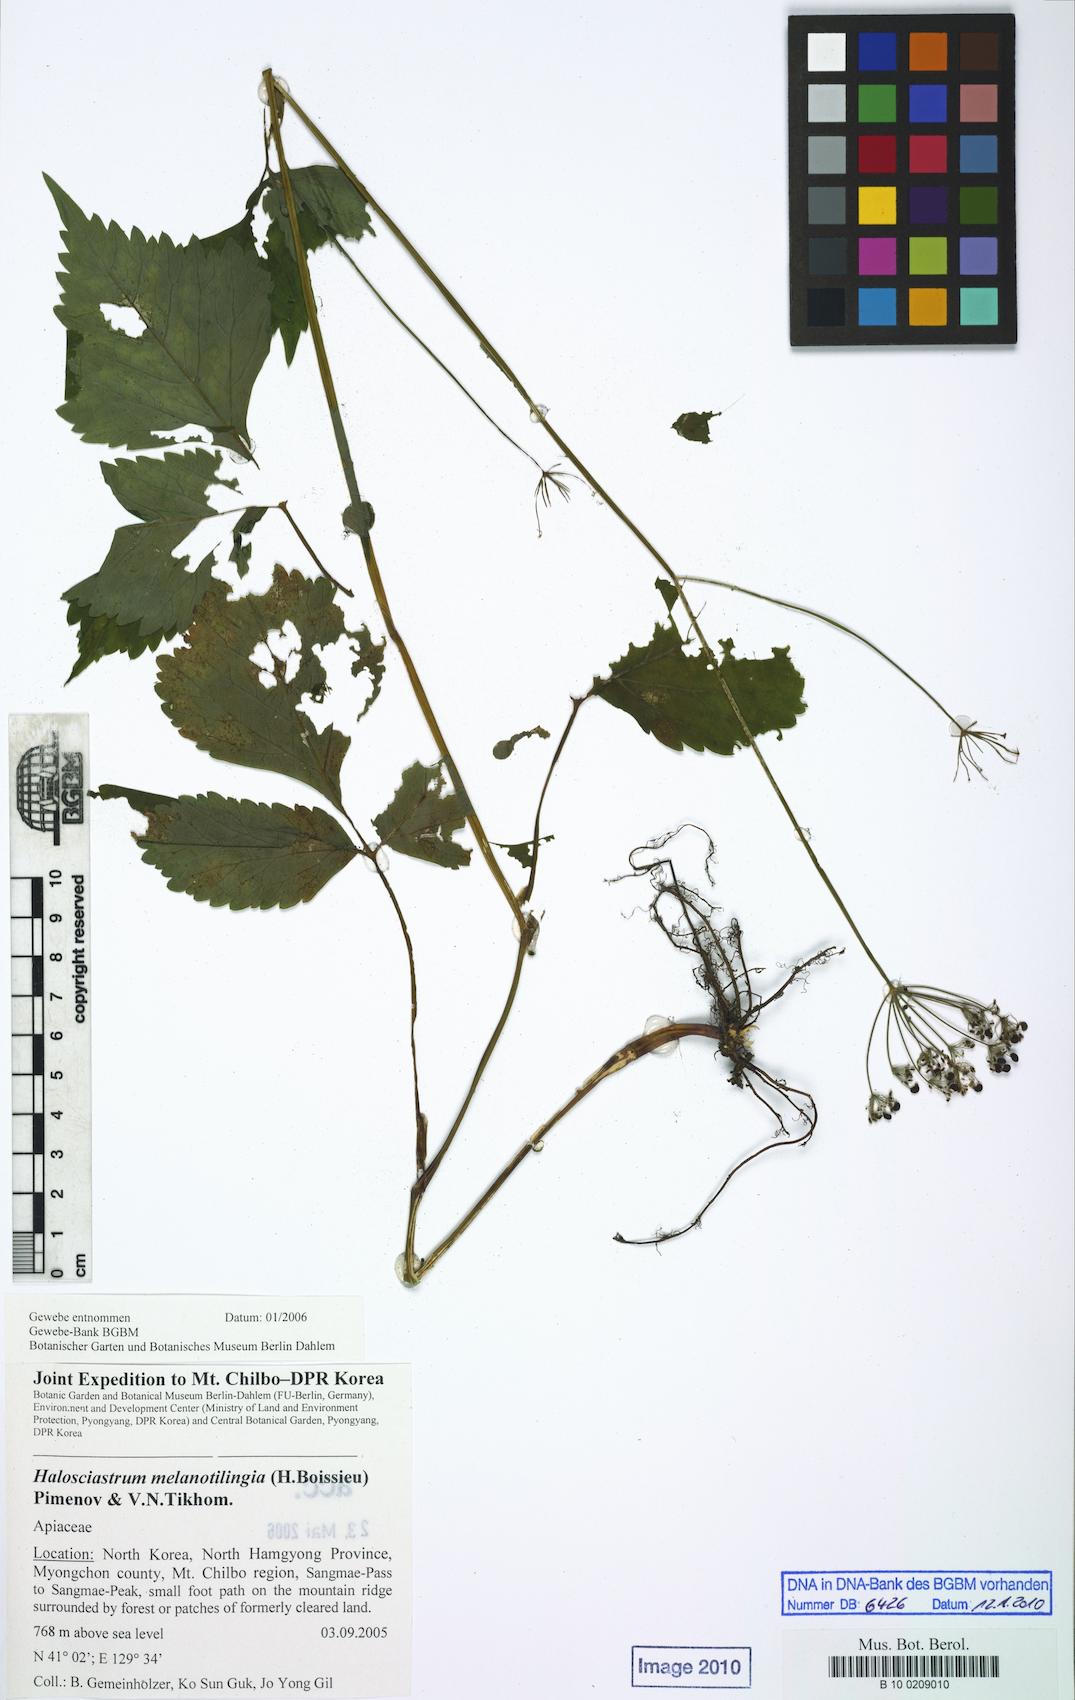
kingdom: Plantae
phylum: Tracheophyta
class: Magnoliopsida
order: Apiales
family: Apiaceae
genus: Halosciastrum
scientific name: Halosciastrum melanotilingia
